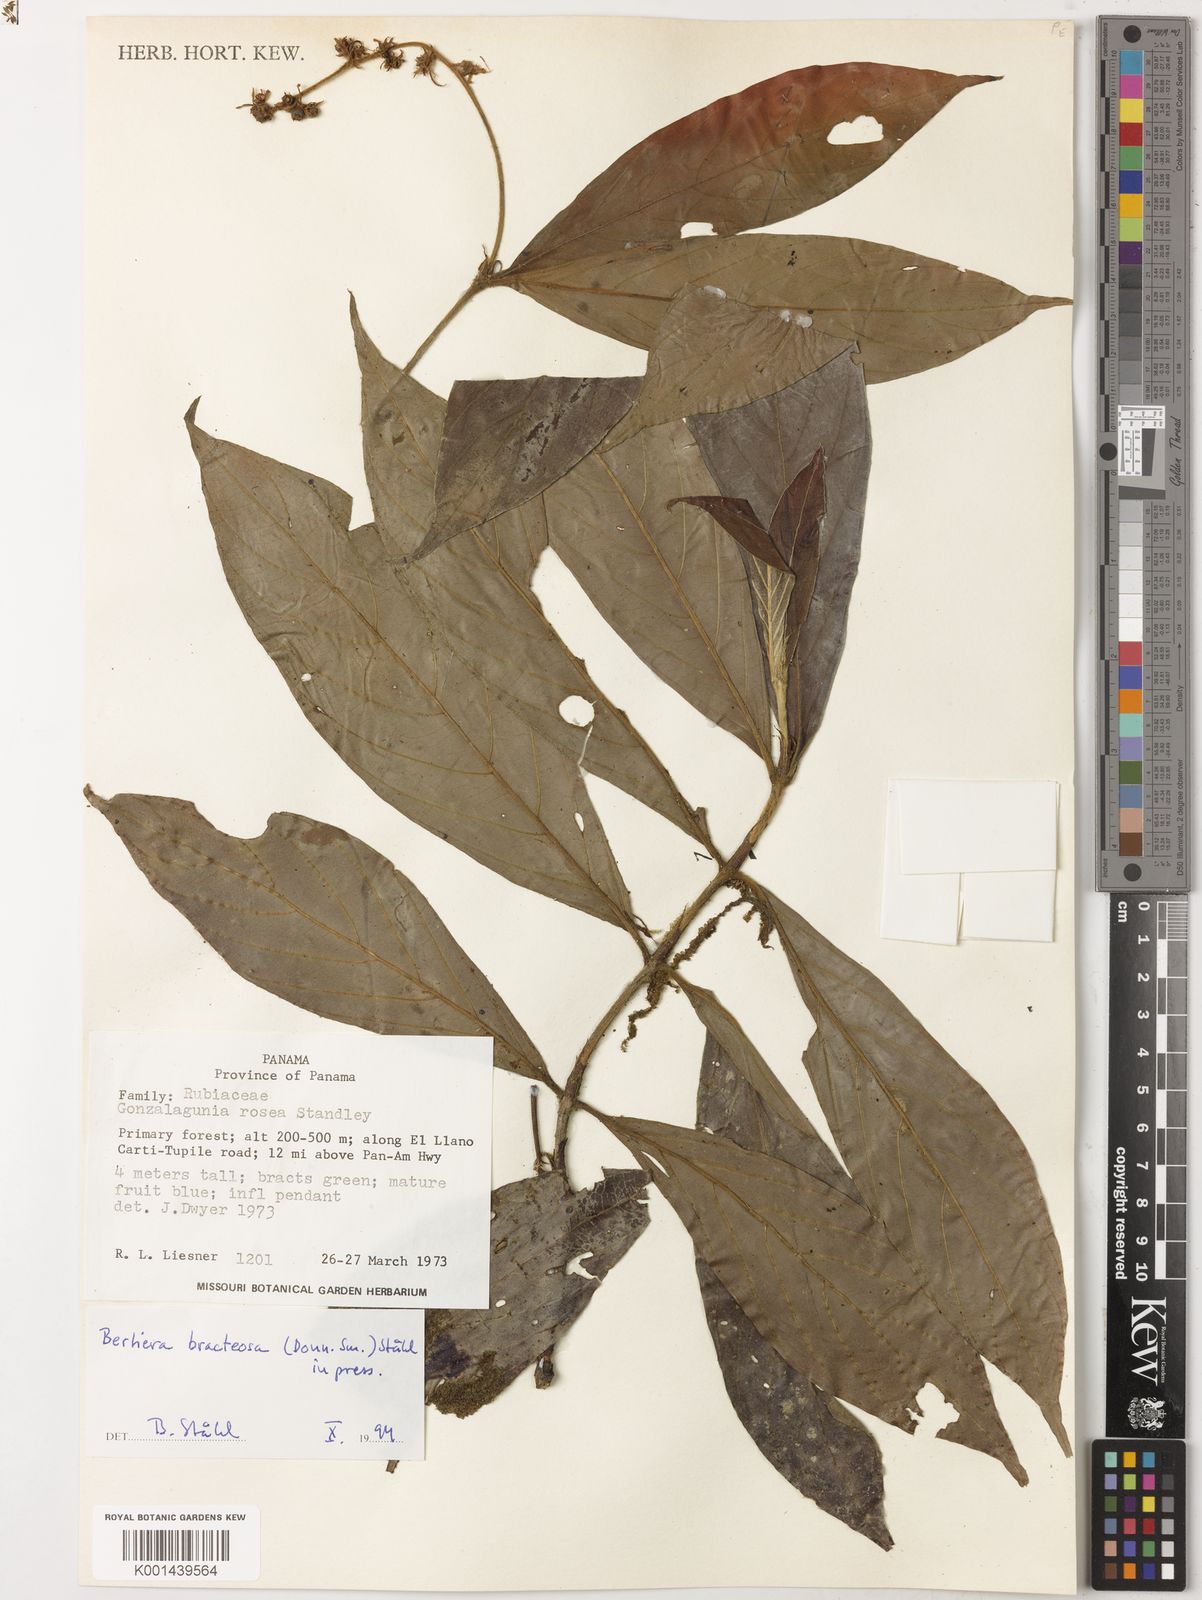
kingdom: Plantae
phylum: Tracheophyta
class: Magnoliopsida
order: Gentianales
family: Rubiaceae
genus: Bertiera
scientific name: Bertiera bracteosa
